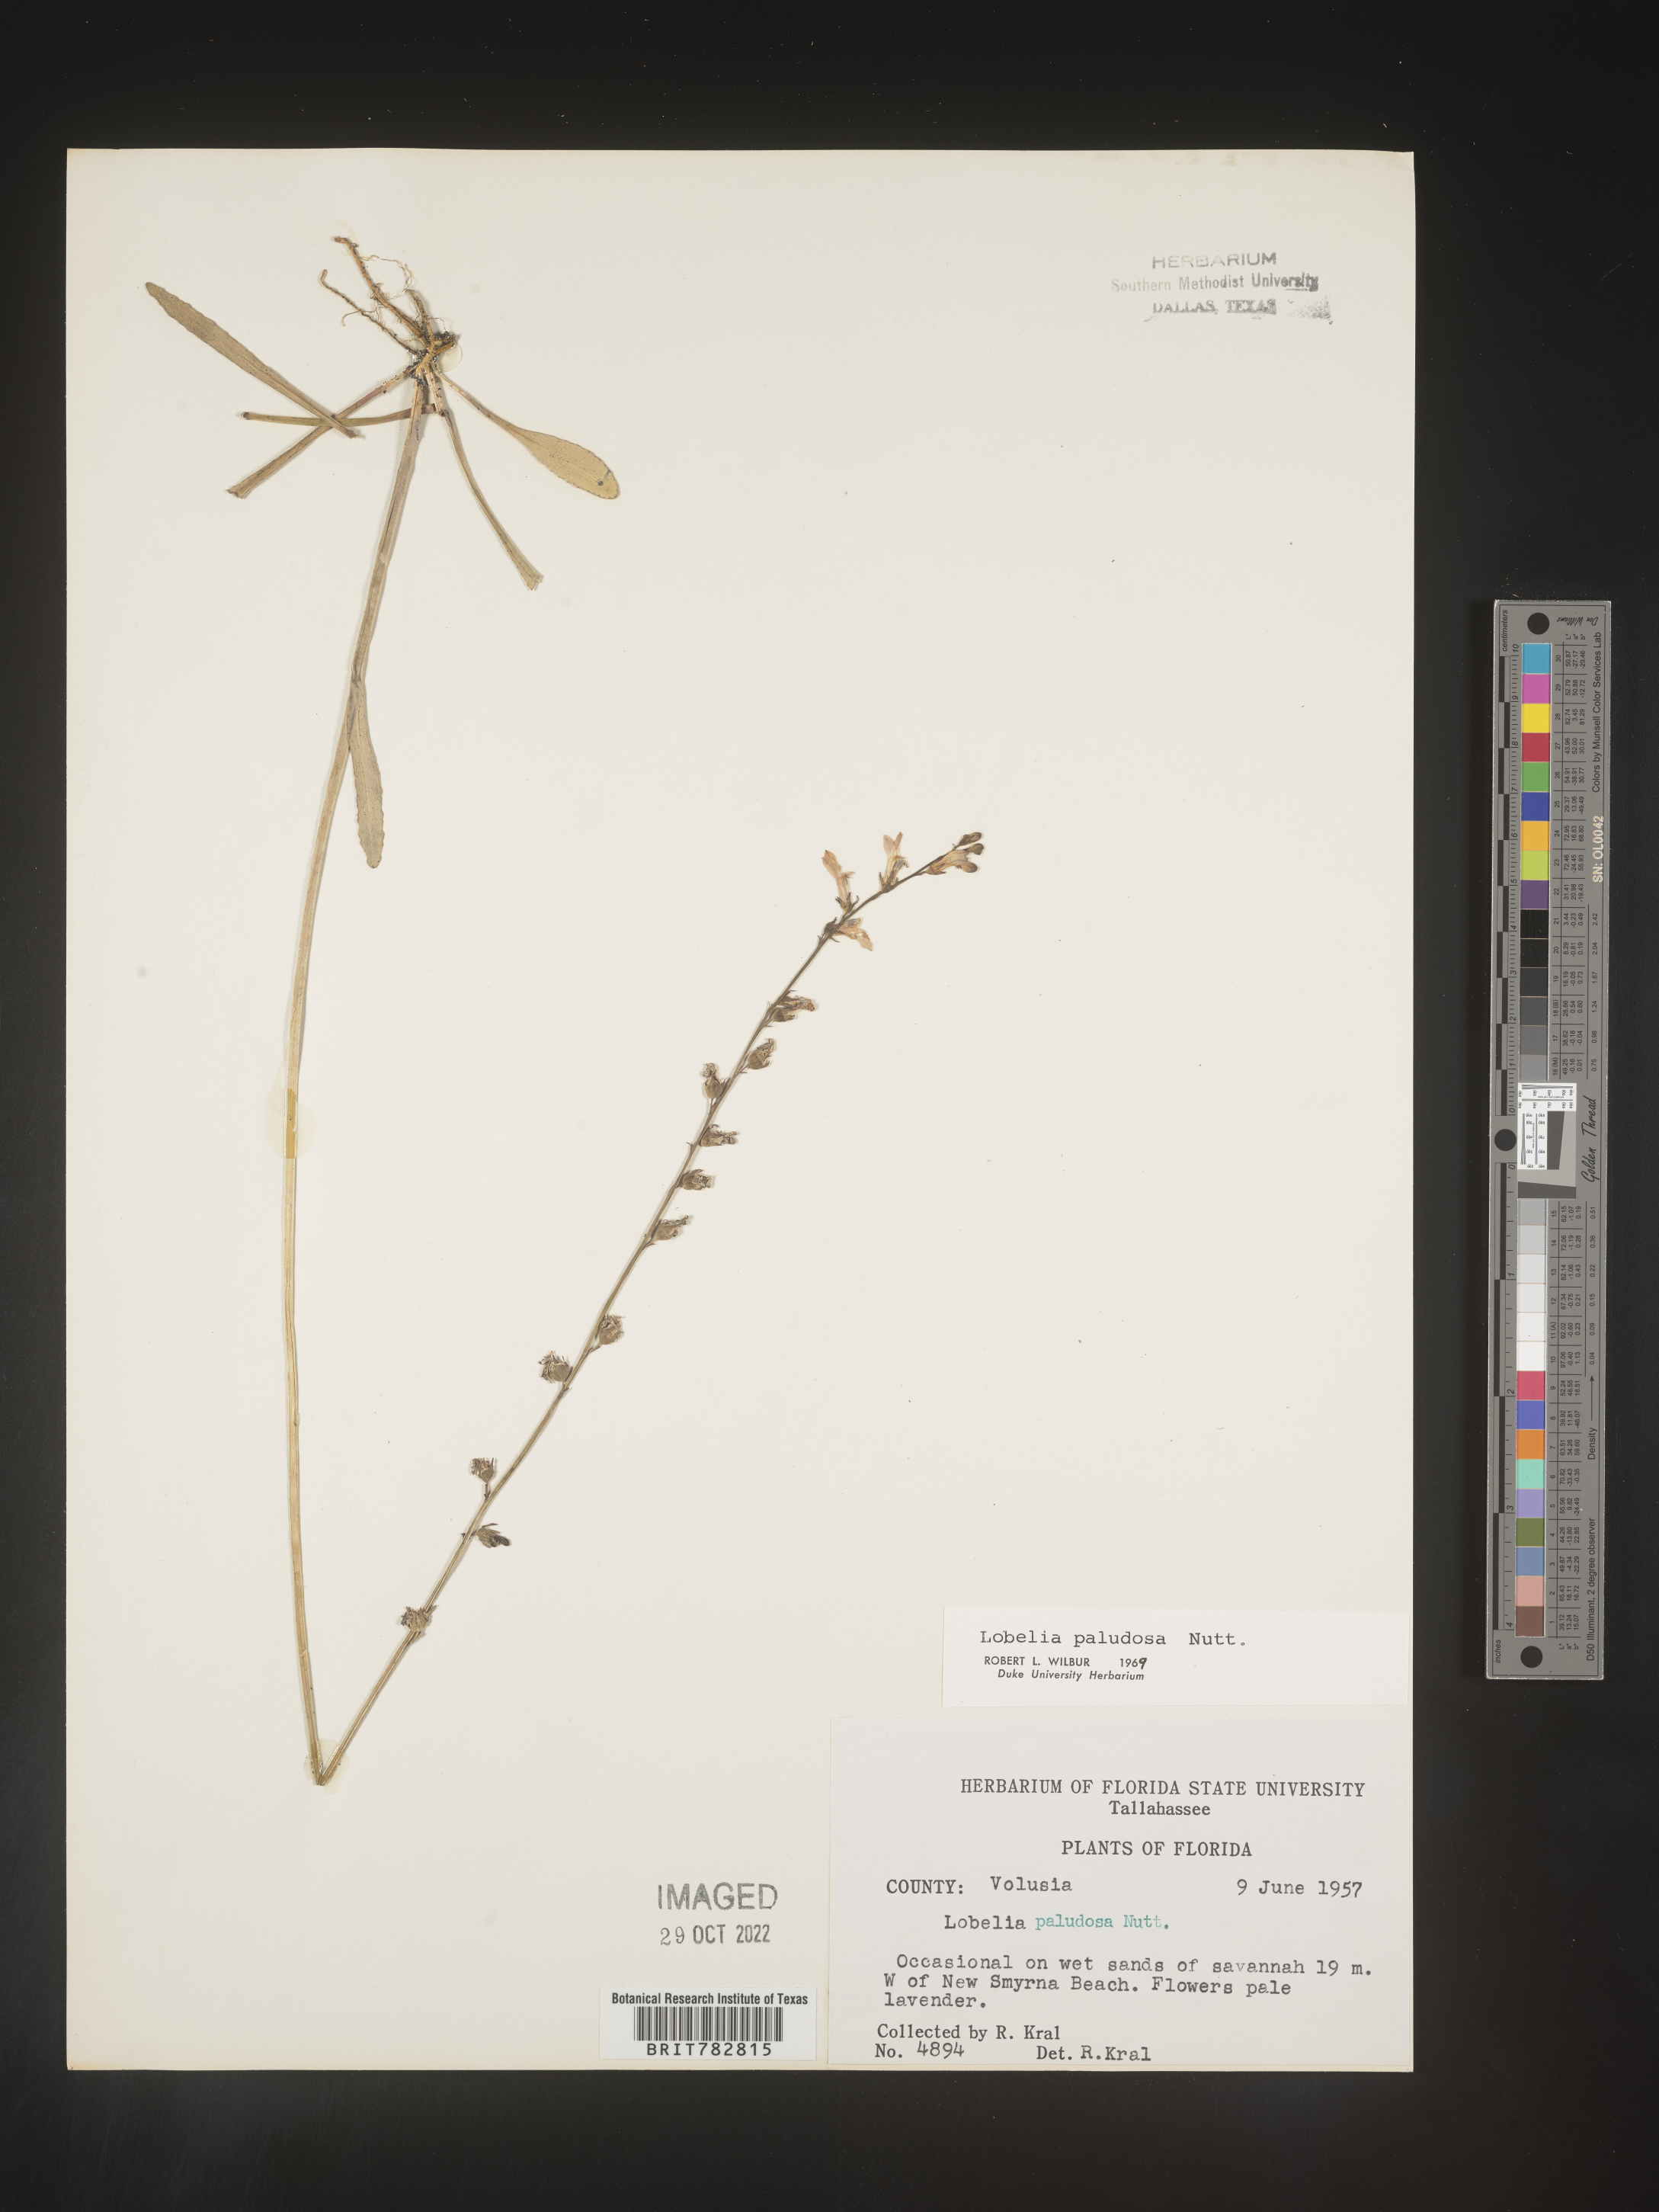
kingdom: Plantae
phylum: Tracheophyta
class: Magnoliopsida
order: Asterales
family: Campanulaceae
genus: Lobelia
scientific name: Lobelia paludosa
